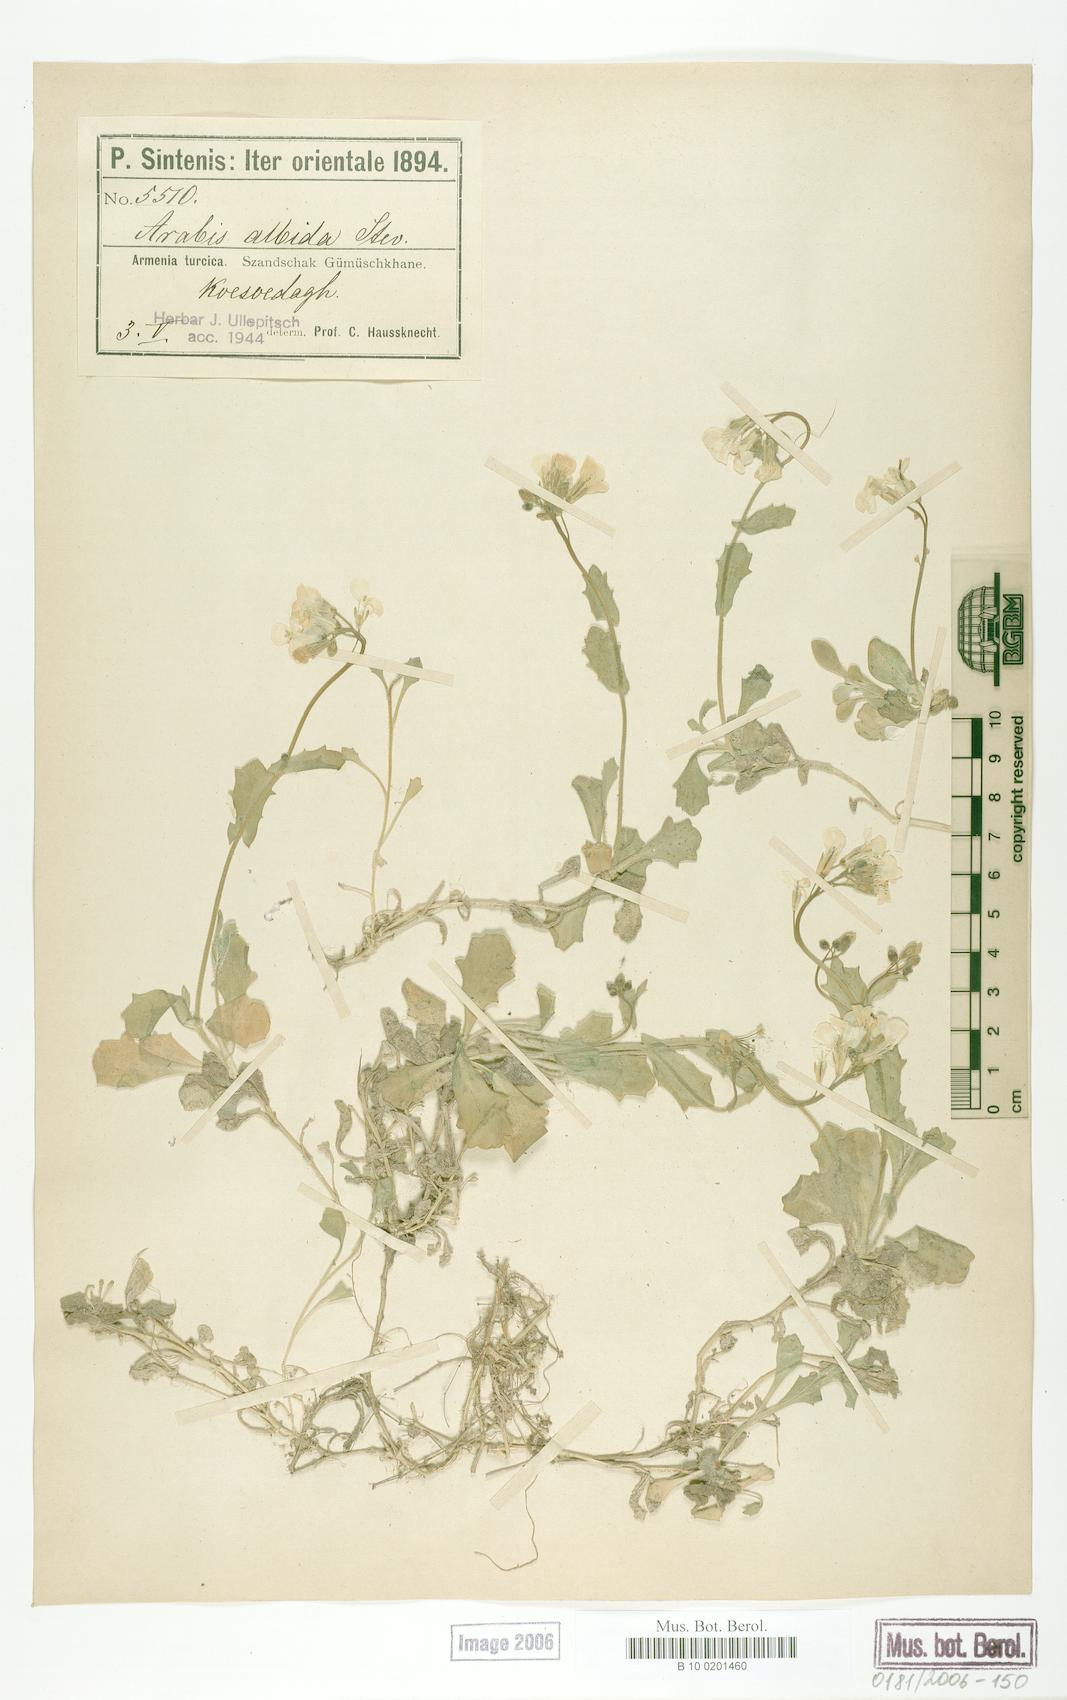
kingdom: Plantae
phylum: Tracheophyta
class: Magnoliopsida
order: Brassicales
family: Brassicaceae
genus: Arabis
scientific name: Arabis alpina
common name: Alpine rock-cress
